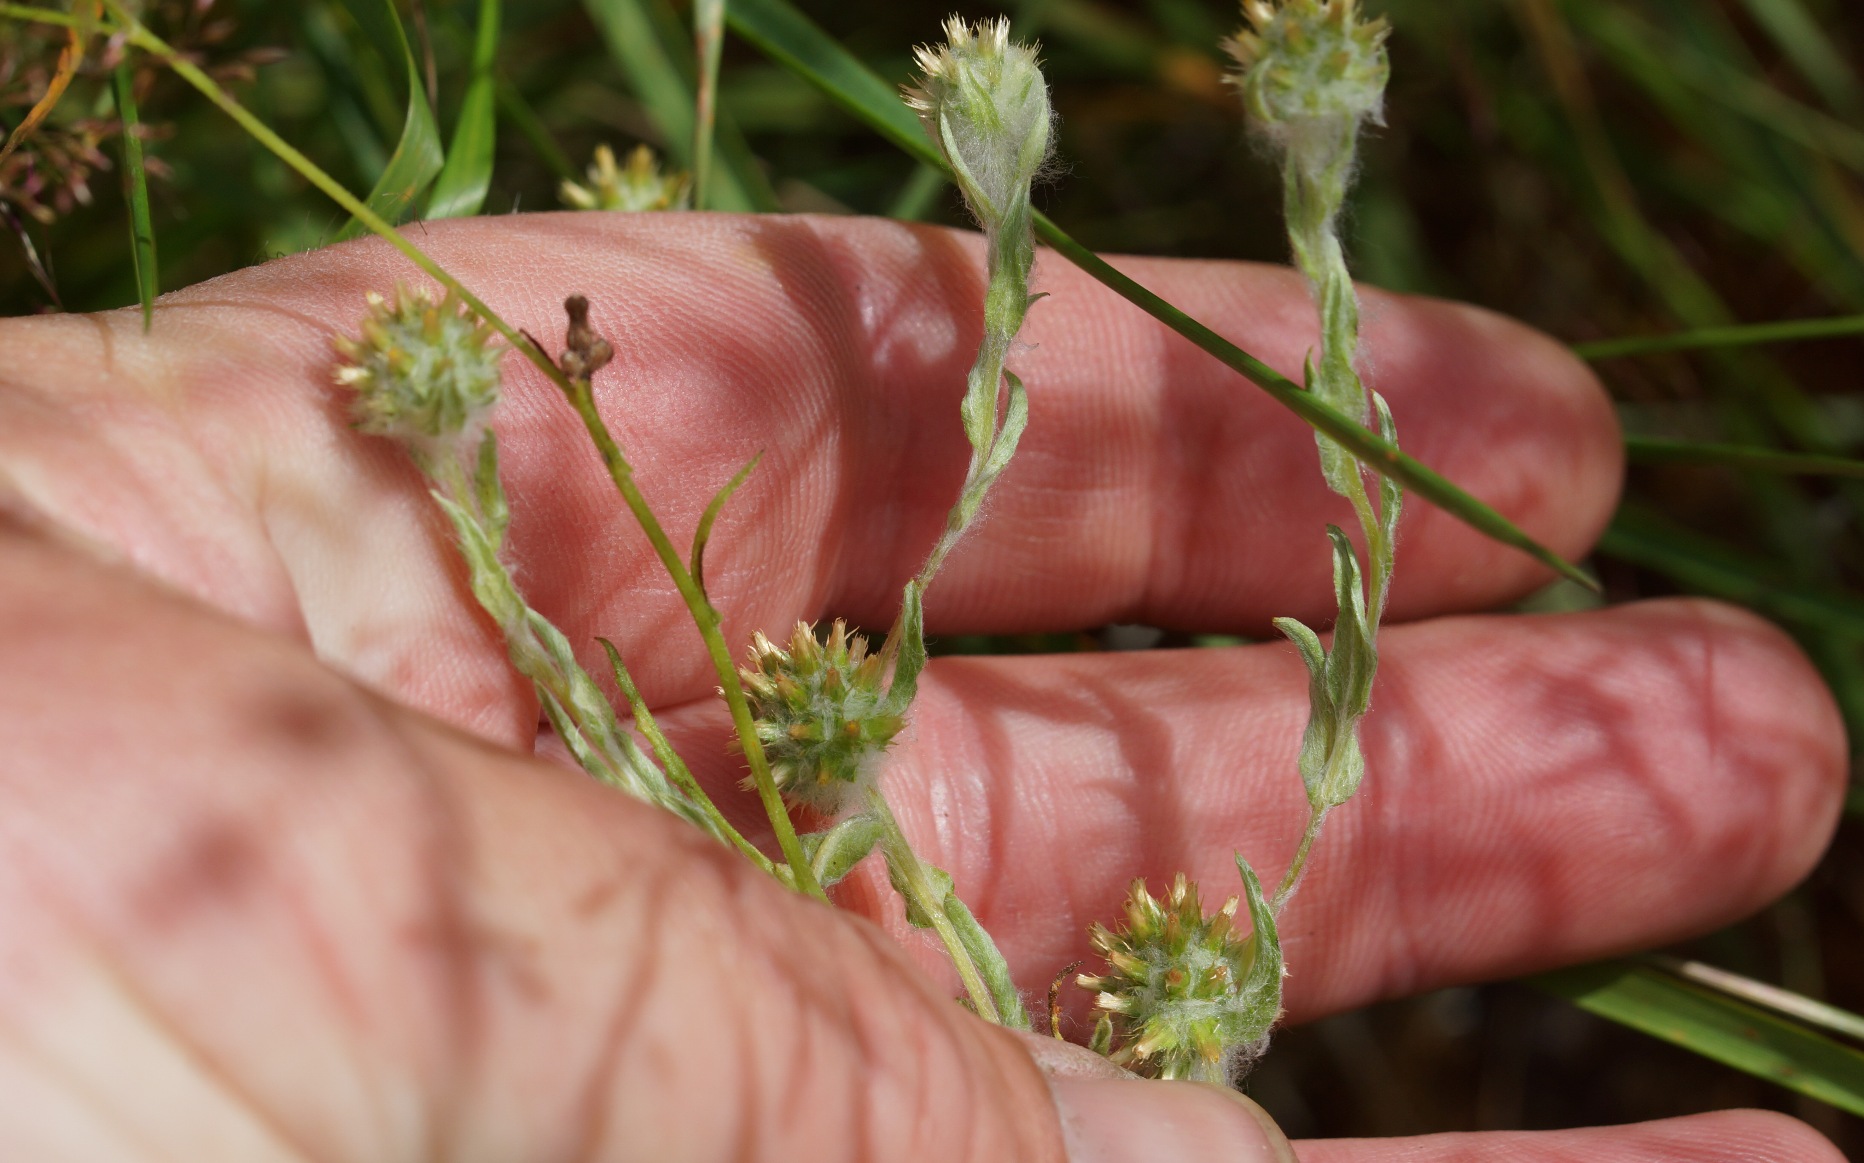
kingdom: Plantae
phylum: Tracheophyta
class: Magnoliopsida
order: Asterales
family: Asteraceae
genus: Filago
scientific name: Filago germanica
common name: Kugle-museurt
